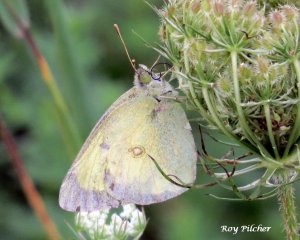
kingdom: Animalia
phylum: Arthropoda
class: Insecta
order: Lepidoptera
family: Pieridae
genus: Colias
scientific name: Colias philodice
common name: Clouded Sulphur
